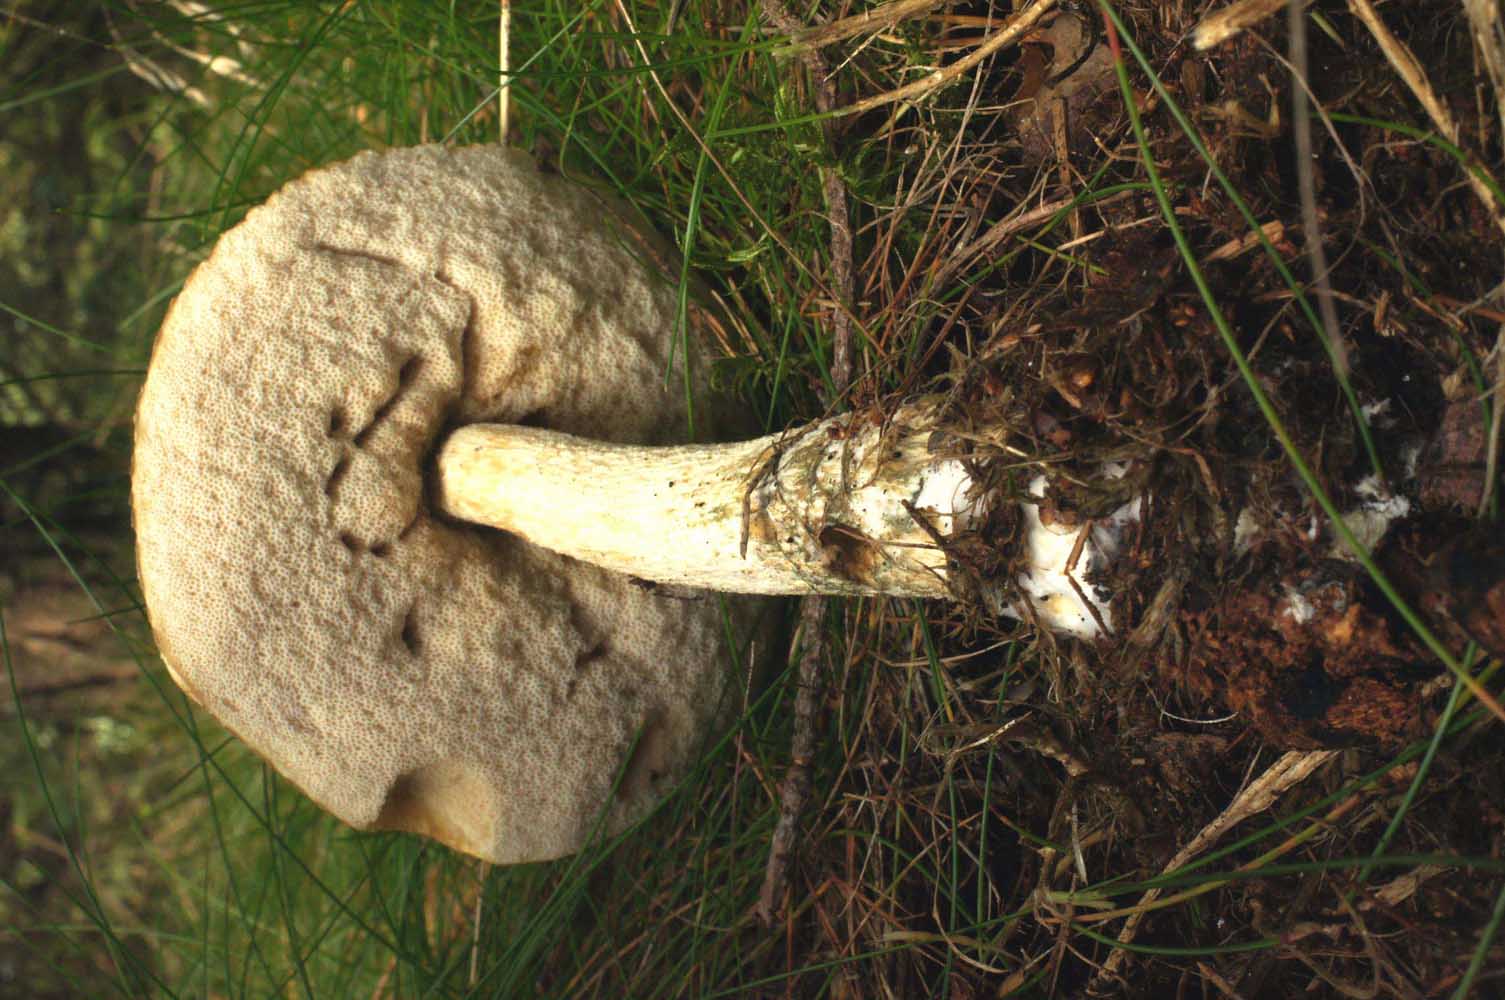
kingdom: Fungi
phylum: Basidiomycota
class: Agaricomycetes
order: Boletales
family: Boletaceae
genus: Leccinum
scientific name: Leccinum scabrum
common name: hvid skælrørhat
